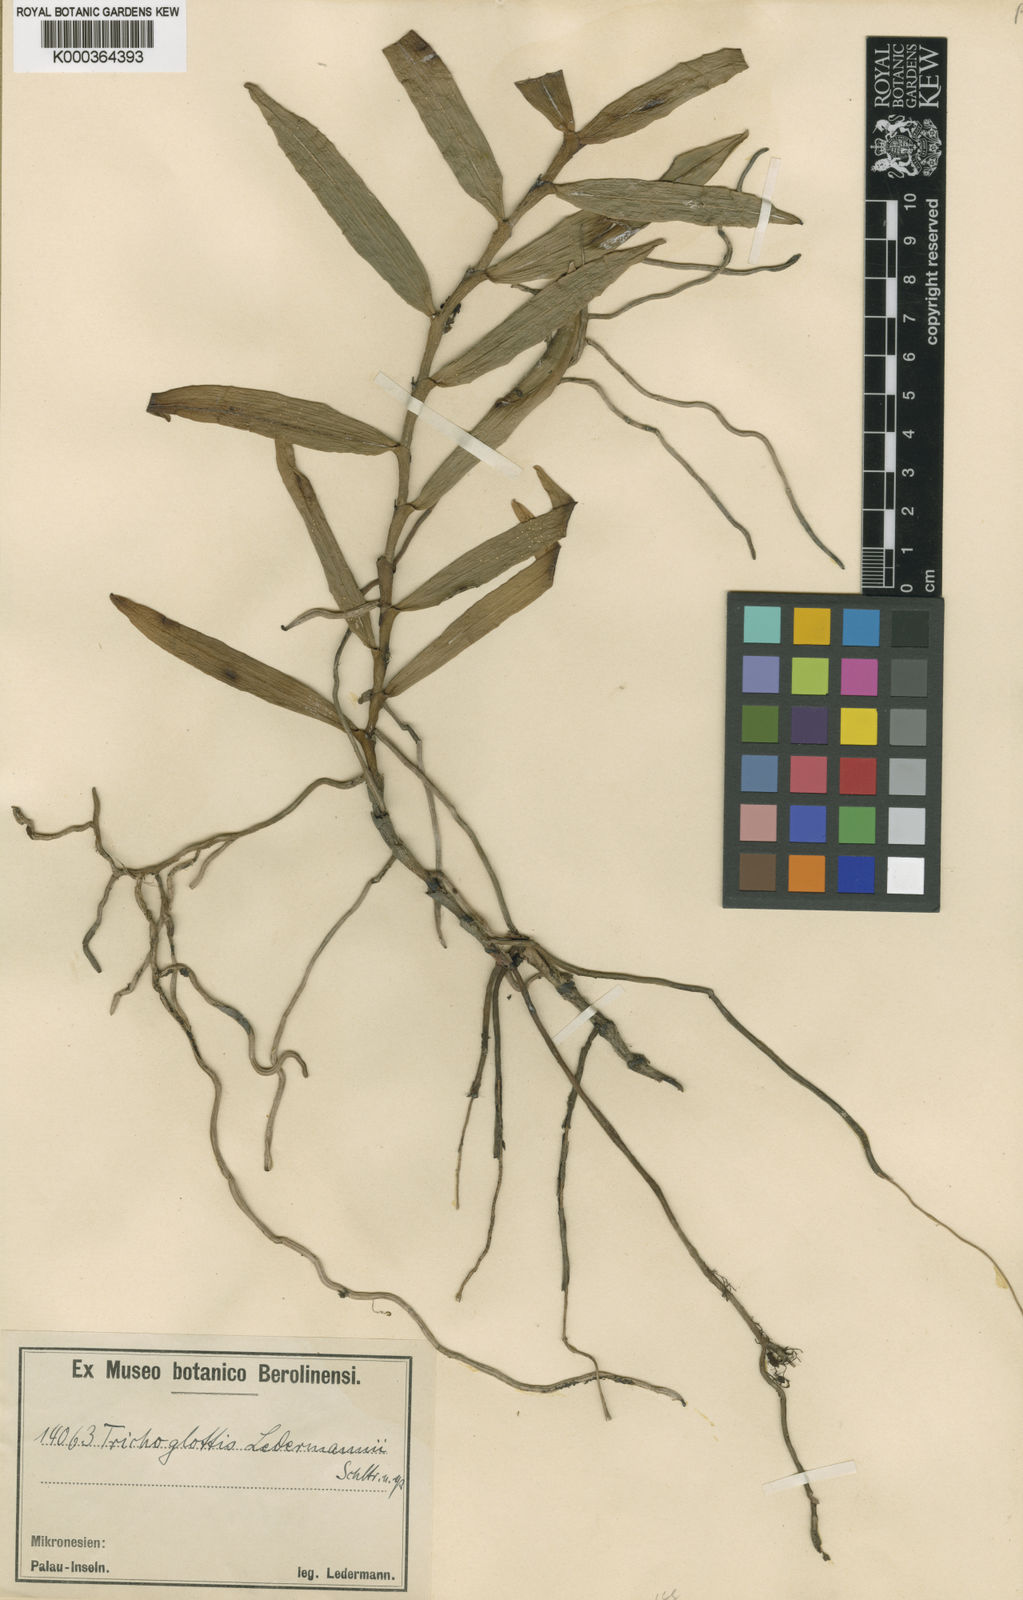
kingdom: Plantae
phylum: Tracheophyta
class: Liliopsida
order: Asparagales
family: Orchidaceae
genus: Trichoglottis
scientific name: Trichoglottis ledermannii
